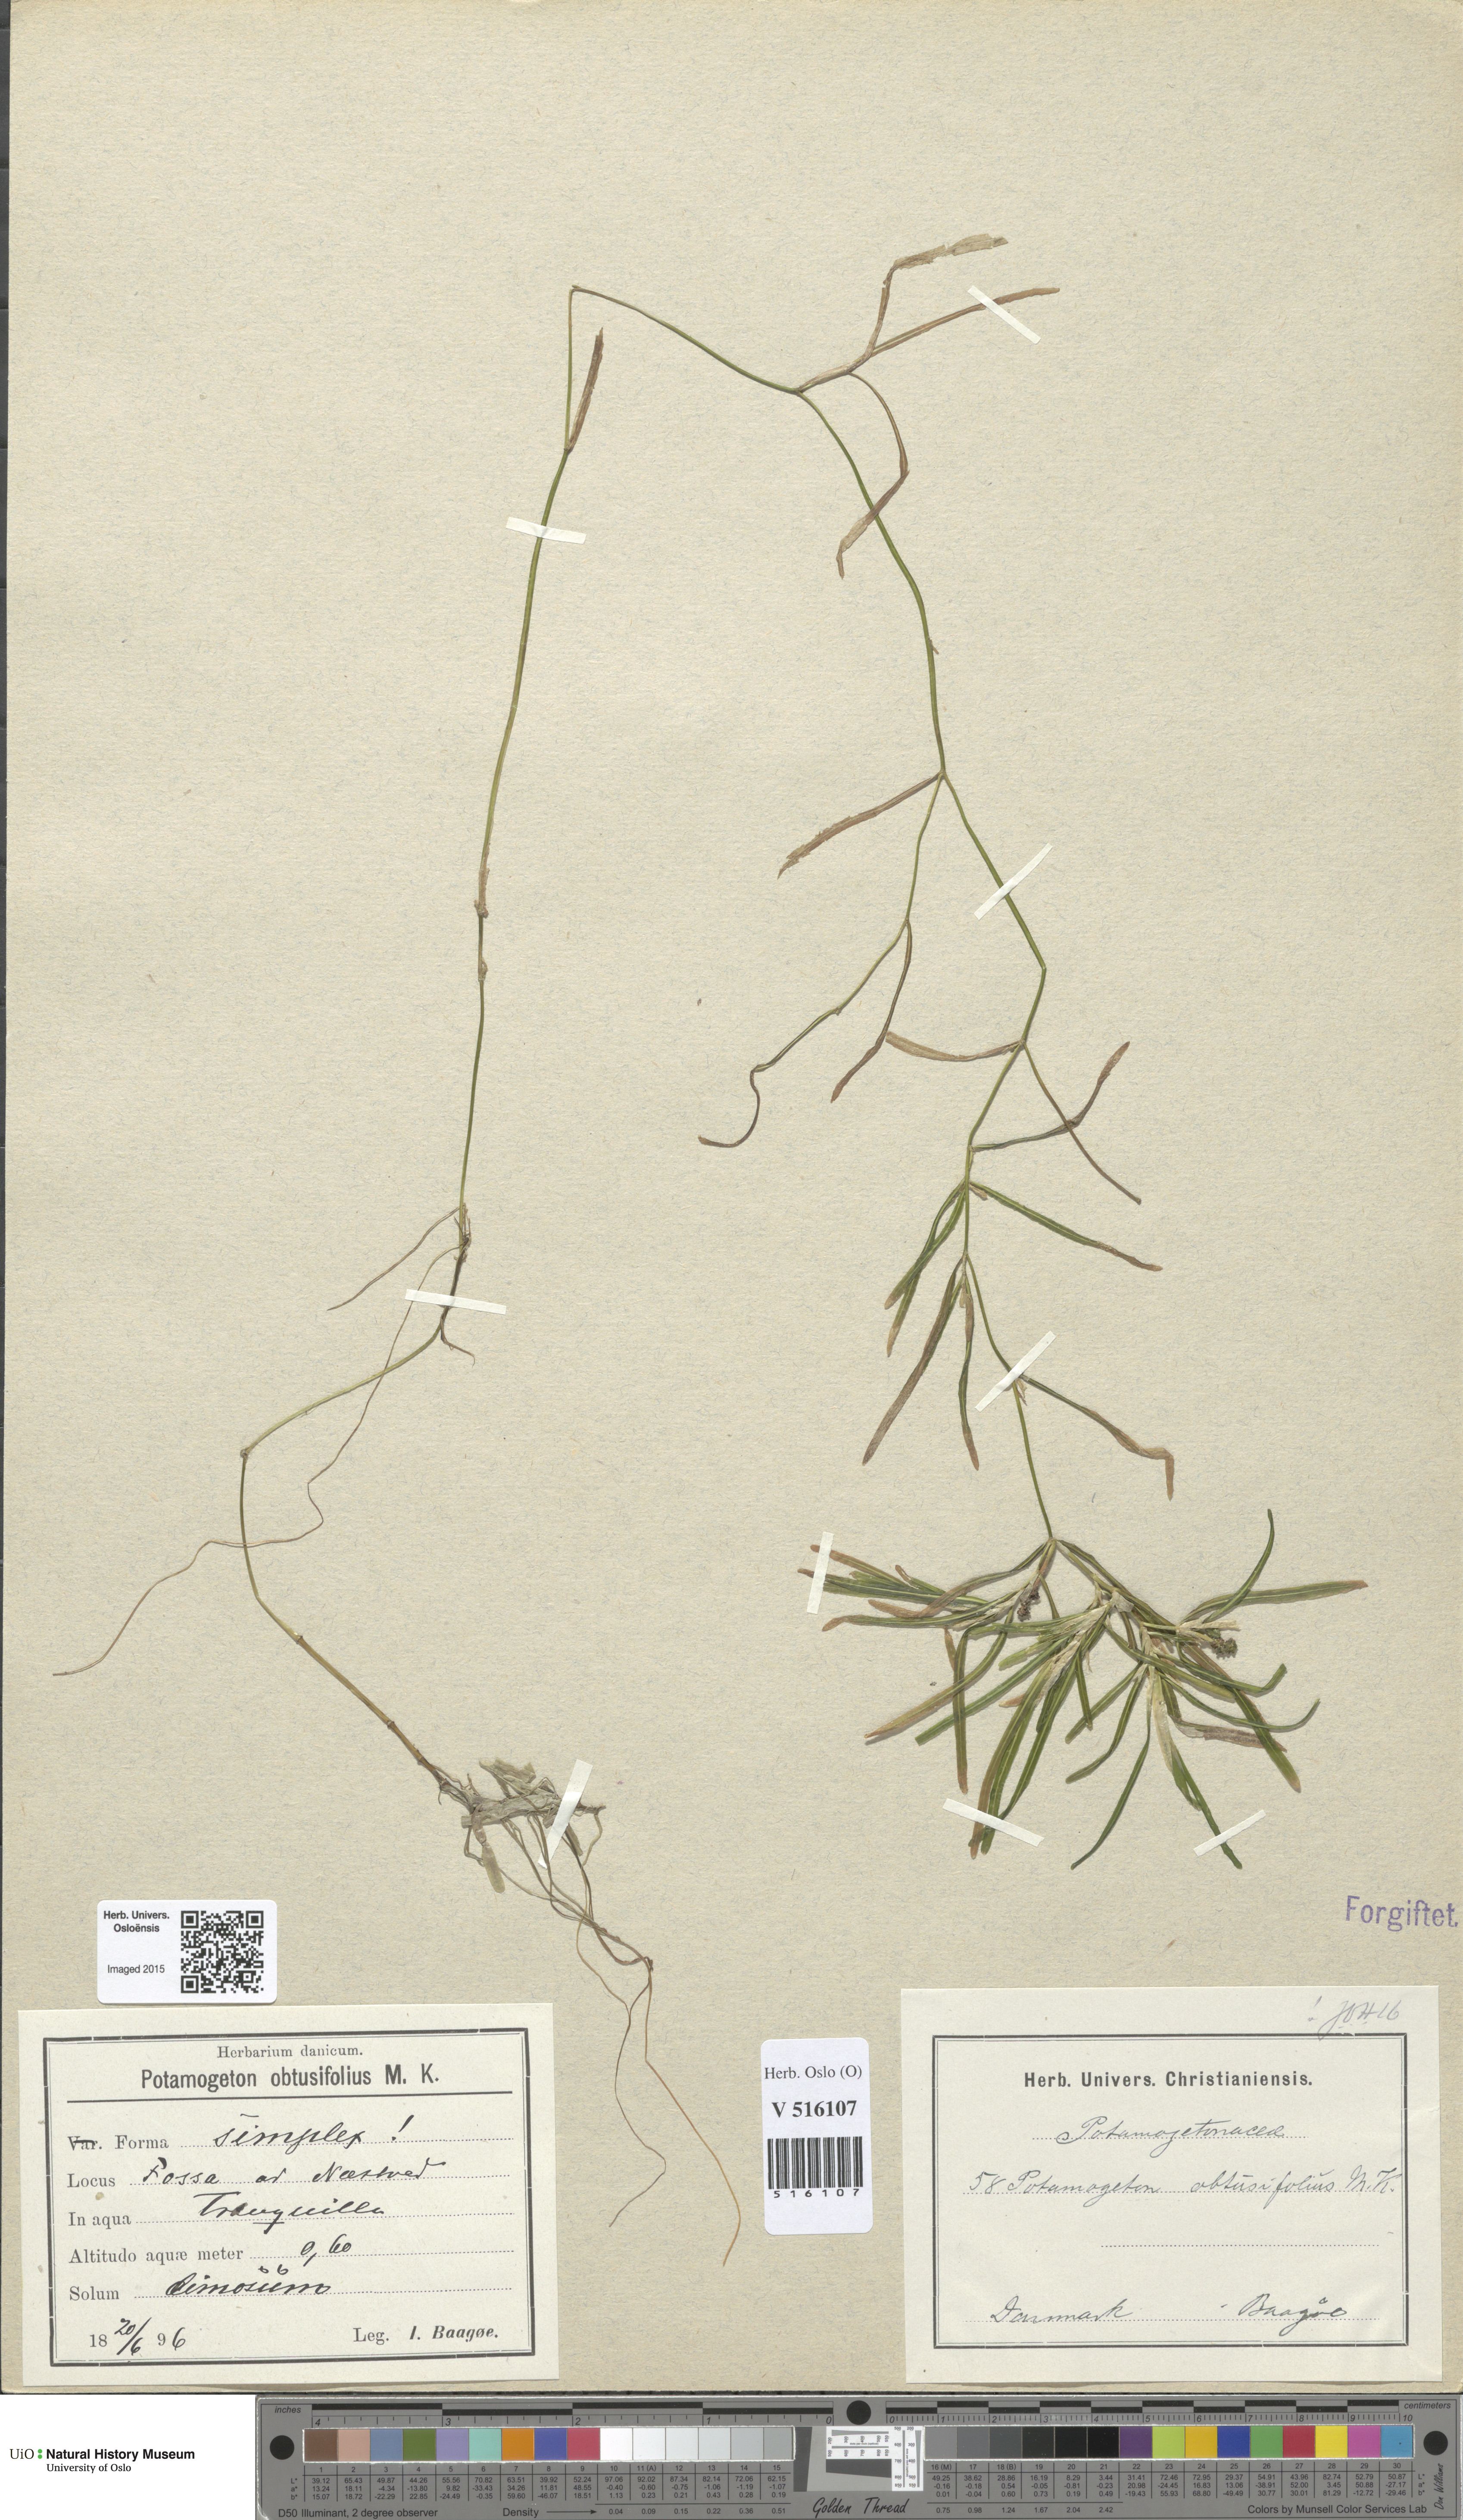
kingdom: Plantae
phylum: Tracheophyta
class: Liliopsida
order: Alismatales
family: Potamogetonaceae
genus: Potamogeton
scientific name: Potamogeton obtusifolius
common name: Blunt-leaved pondweed
